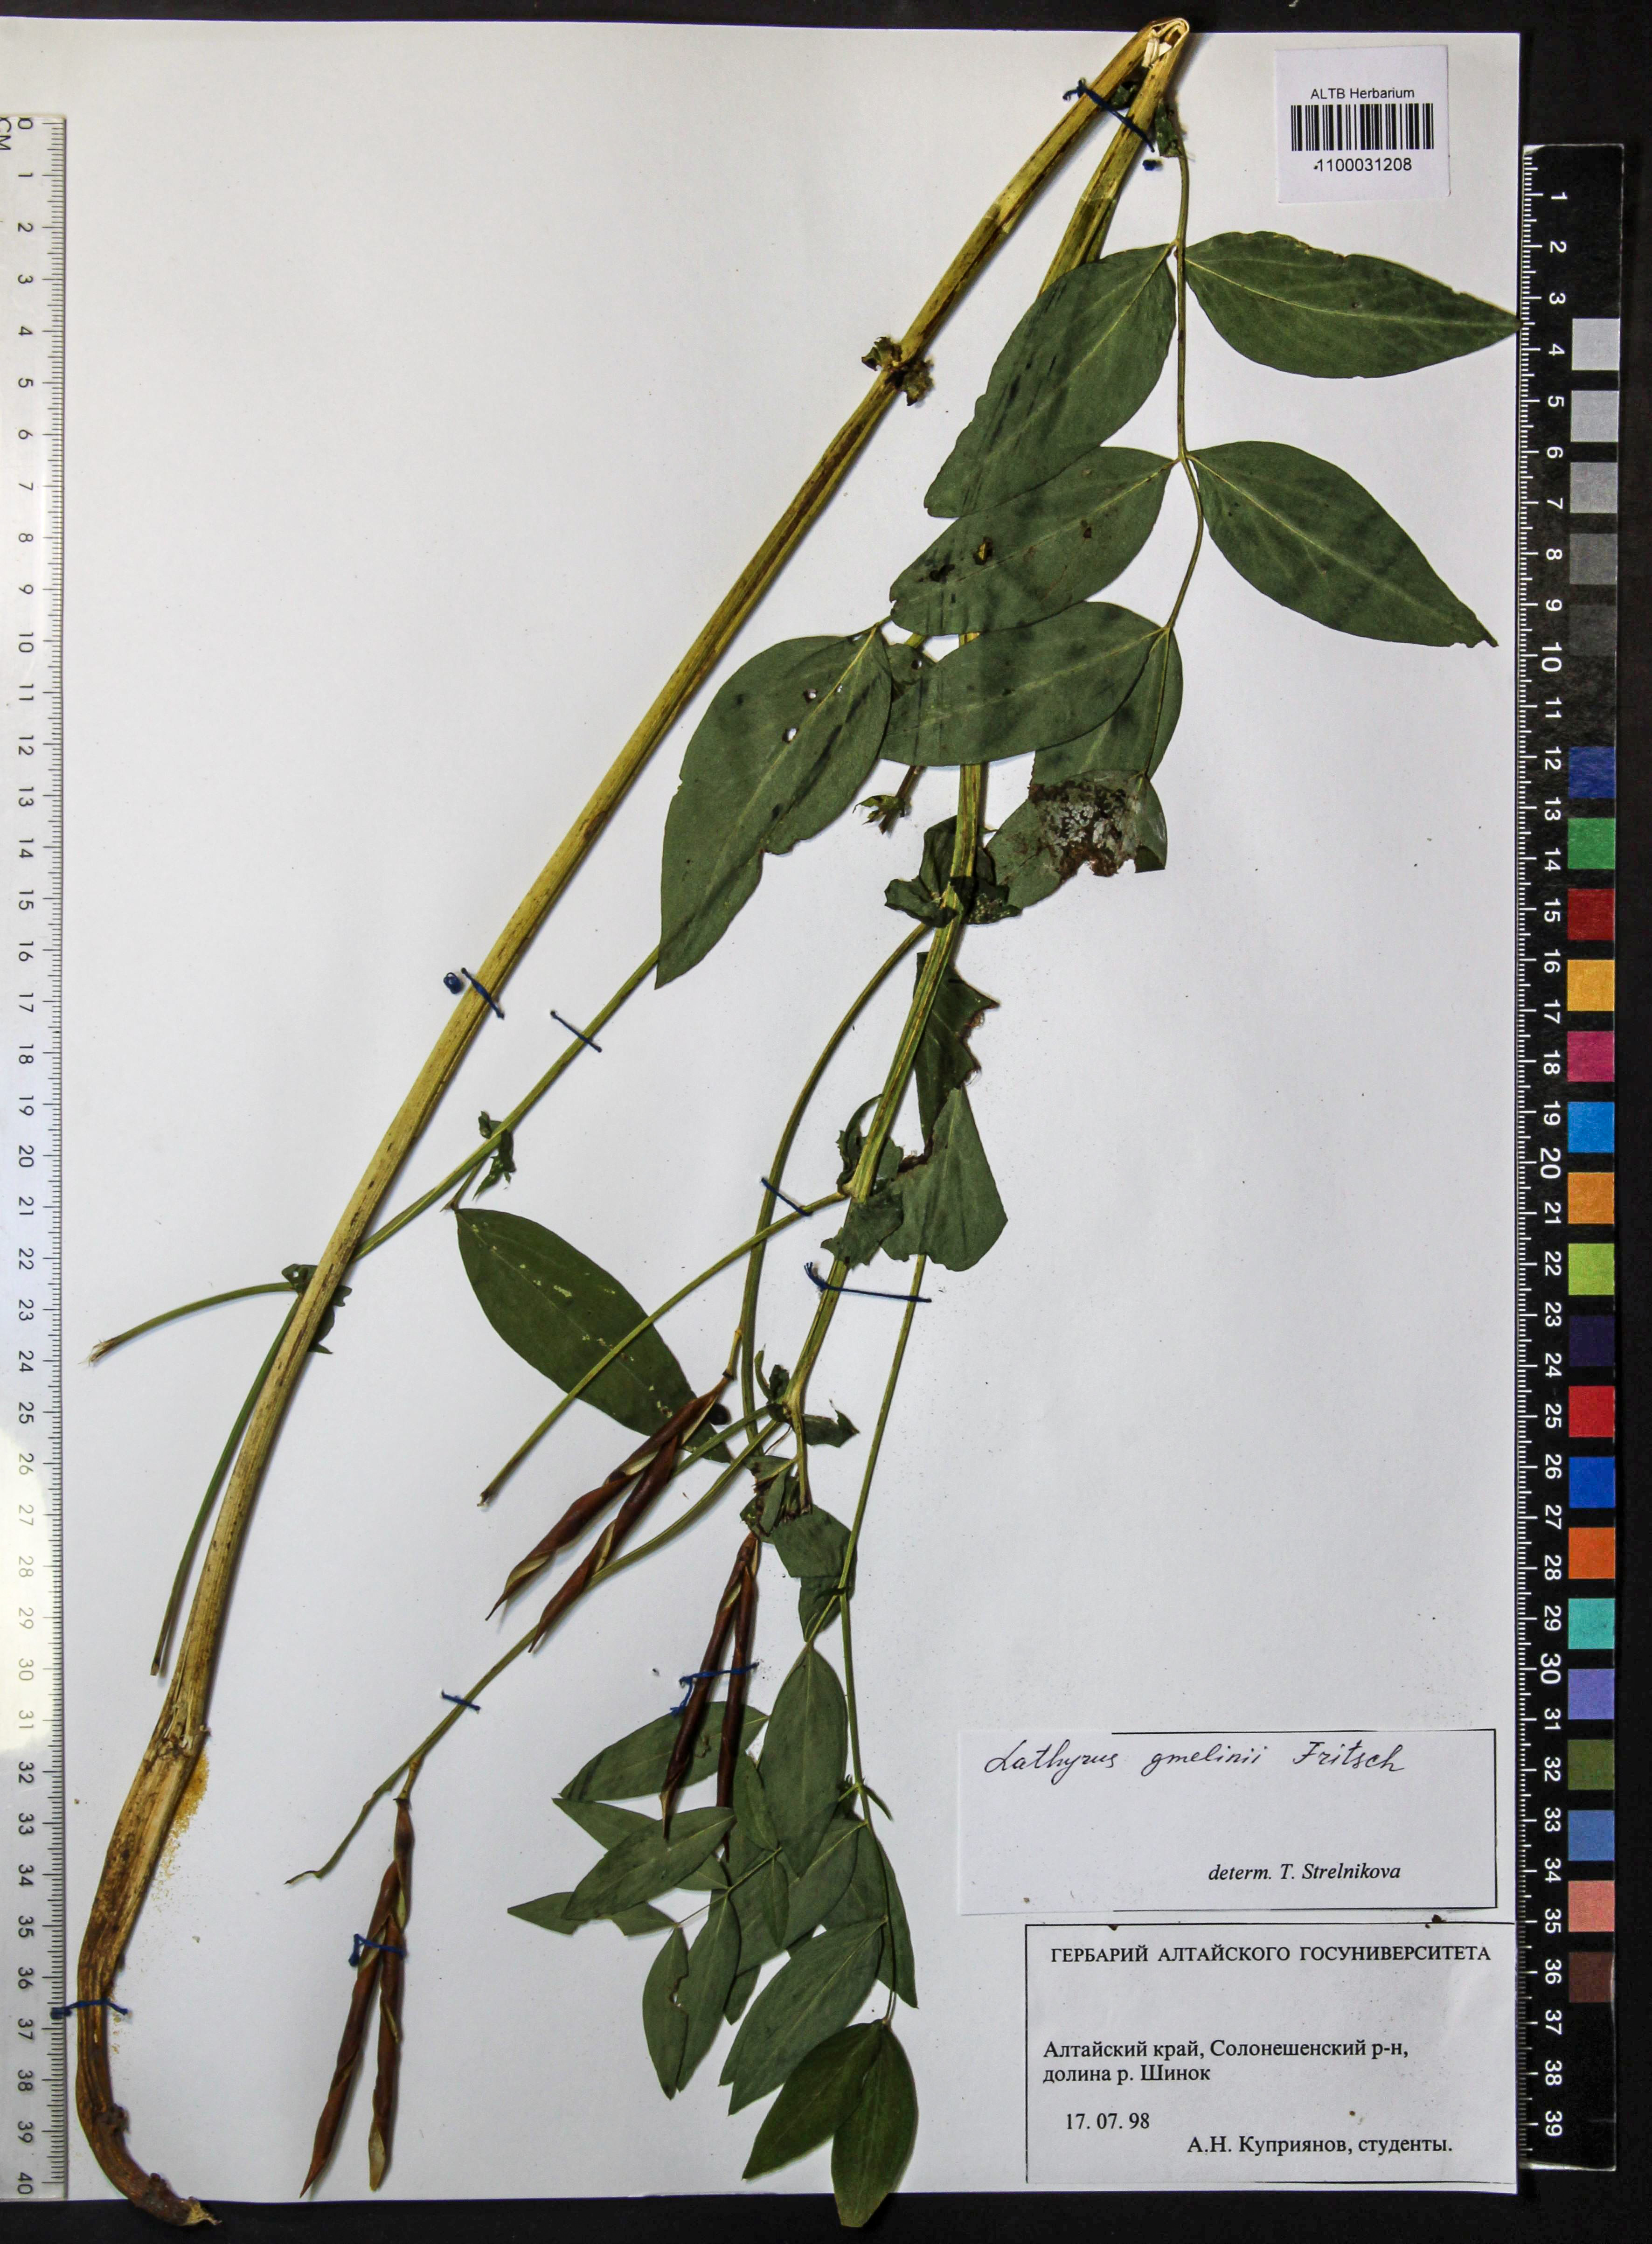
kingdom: Plantae
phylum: Tracheophyta
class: Magnoliopsida
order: Fabales
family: Fabaceae
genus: Lathyrus
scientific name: Lathyrus gmelinii
